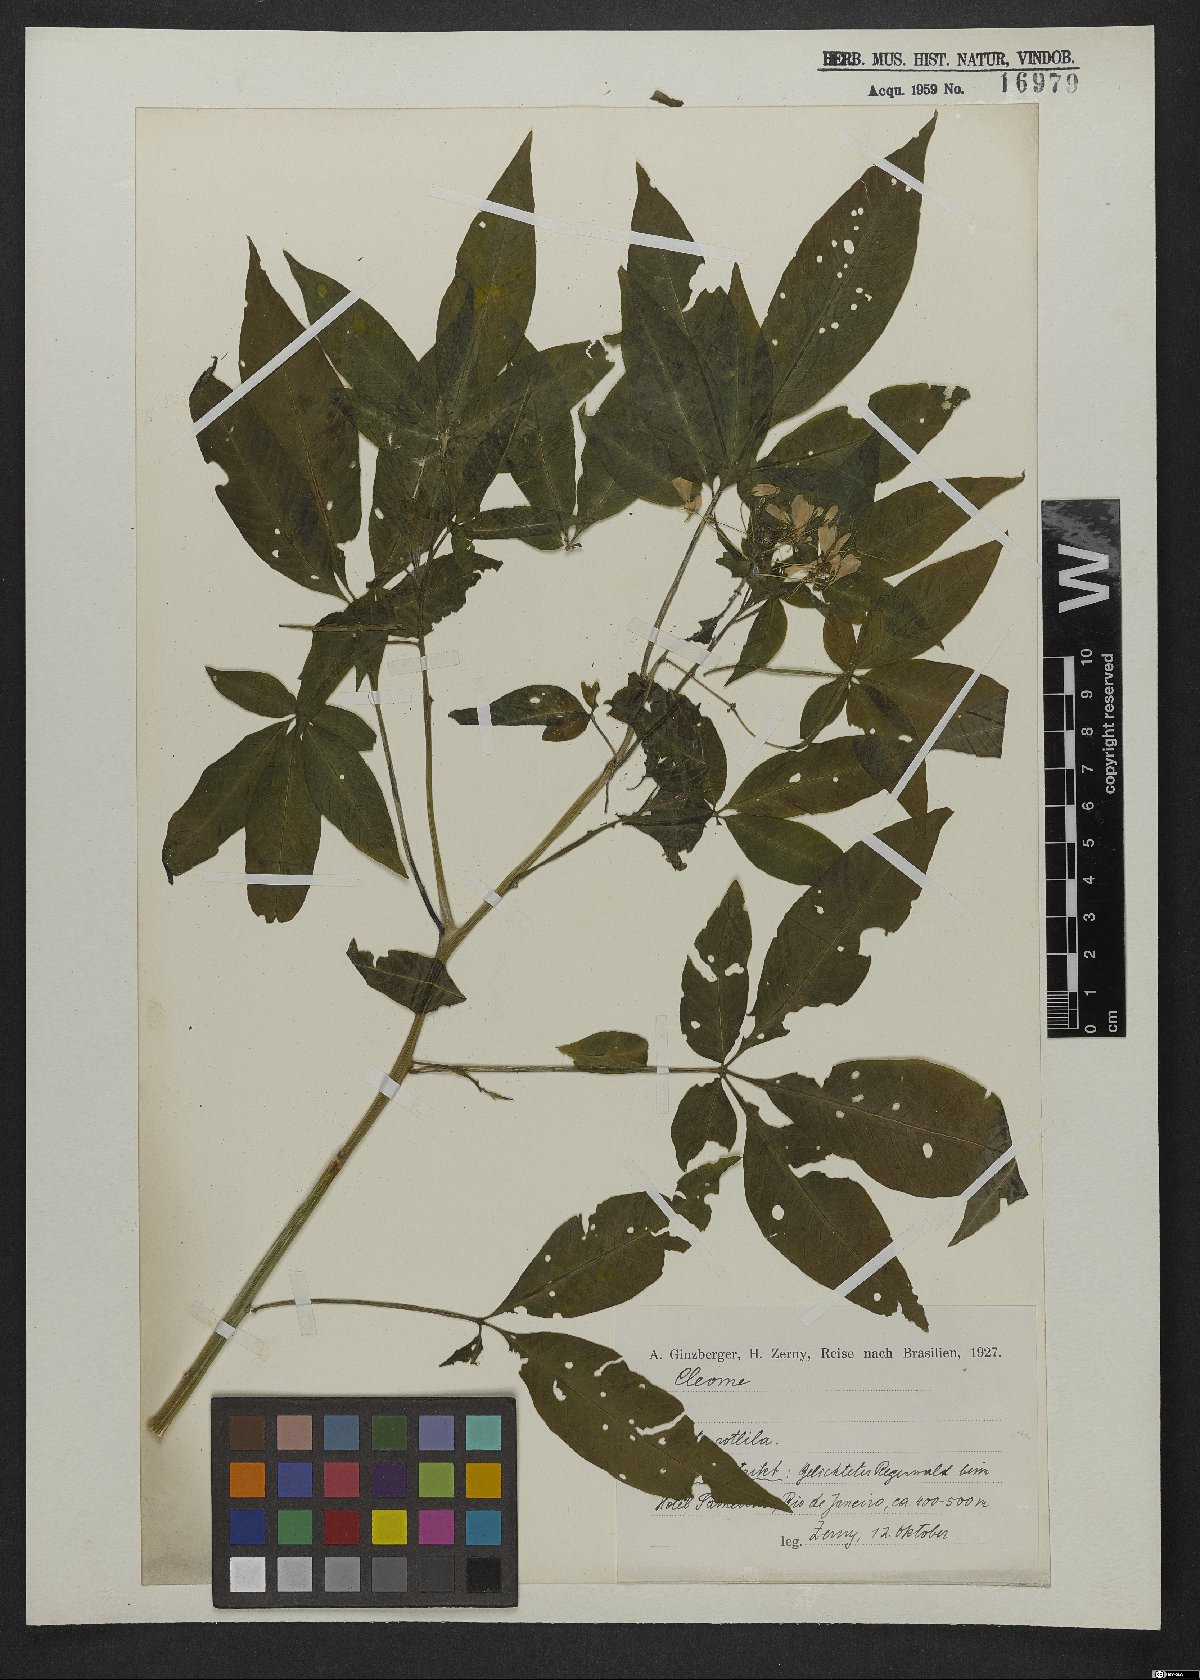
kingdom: Plantae
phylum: Tracheophyta
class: Magnoliopsida
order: Brassicales
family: Cleomaceae
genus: Cleome
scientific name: Cleome
